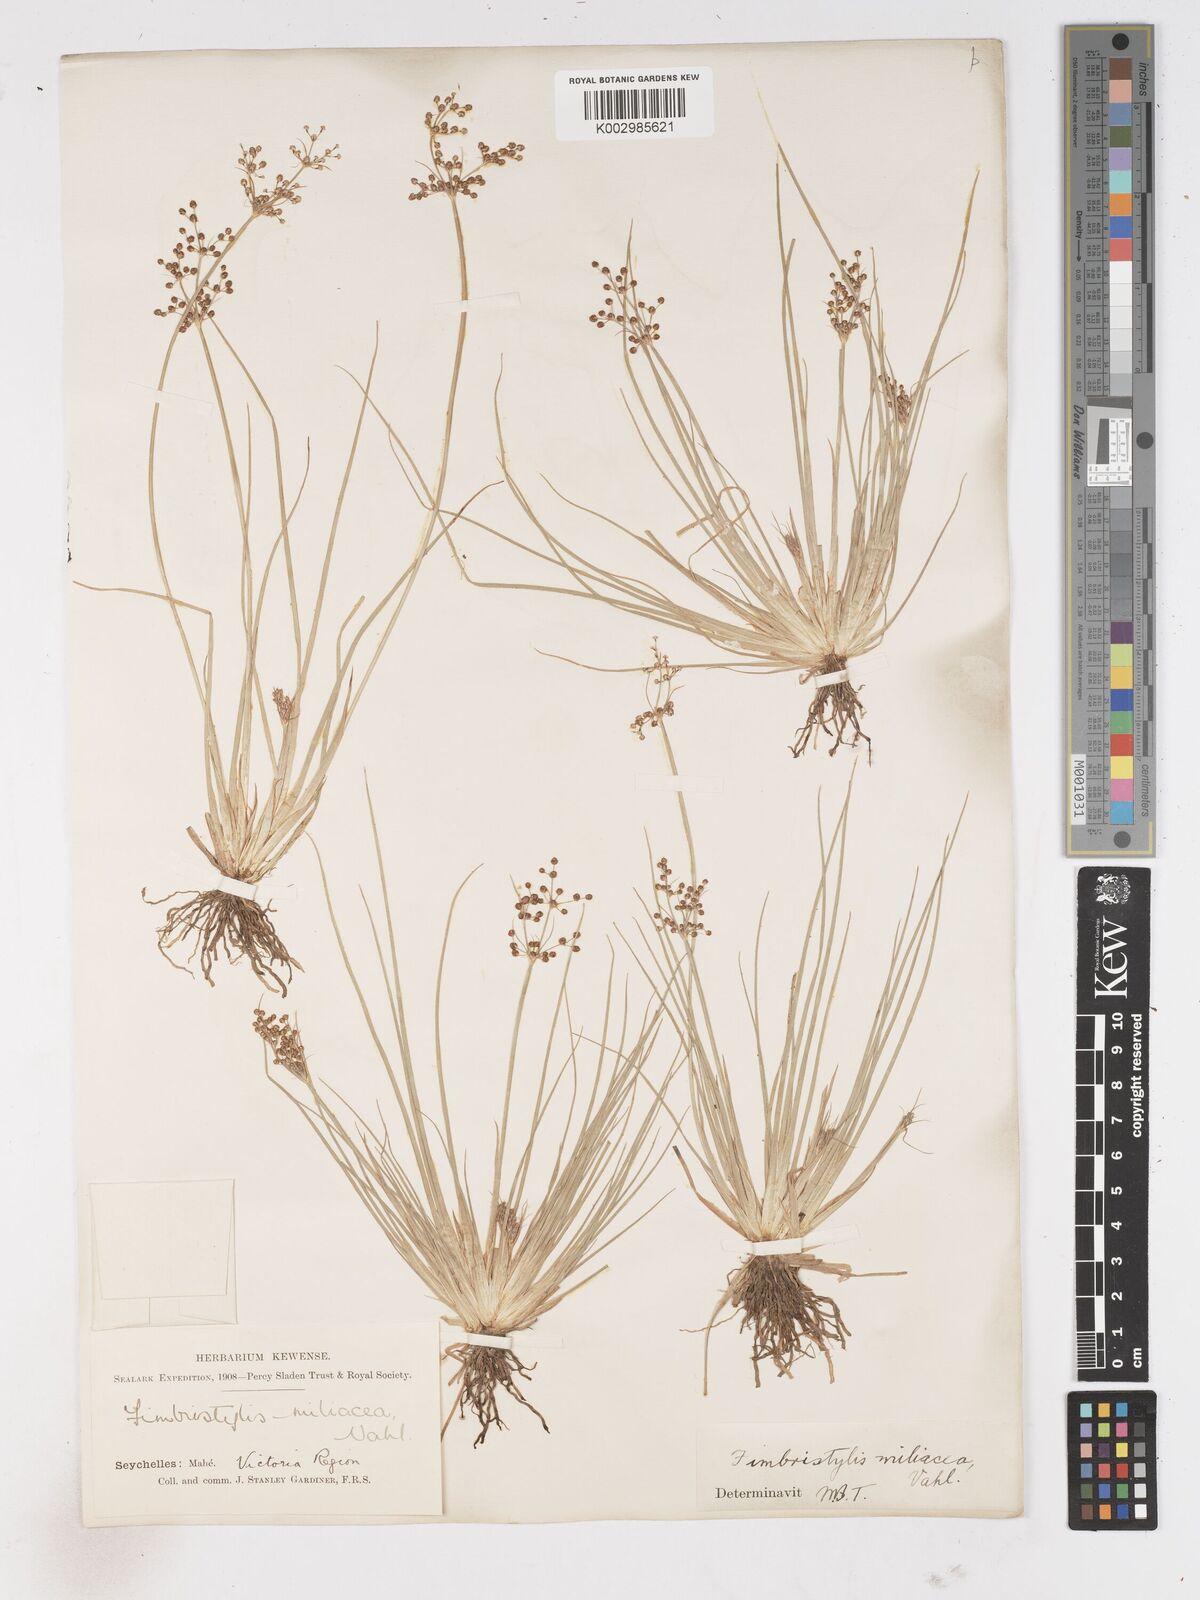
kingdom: Plantae
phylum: Tracheophyta
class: Liliopsida
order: Poales
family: Cyperaceae
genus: Fimbristylis
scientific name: Fimbristylis littoralis
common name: Fimbry
